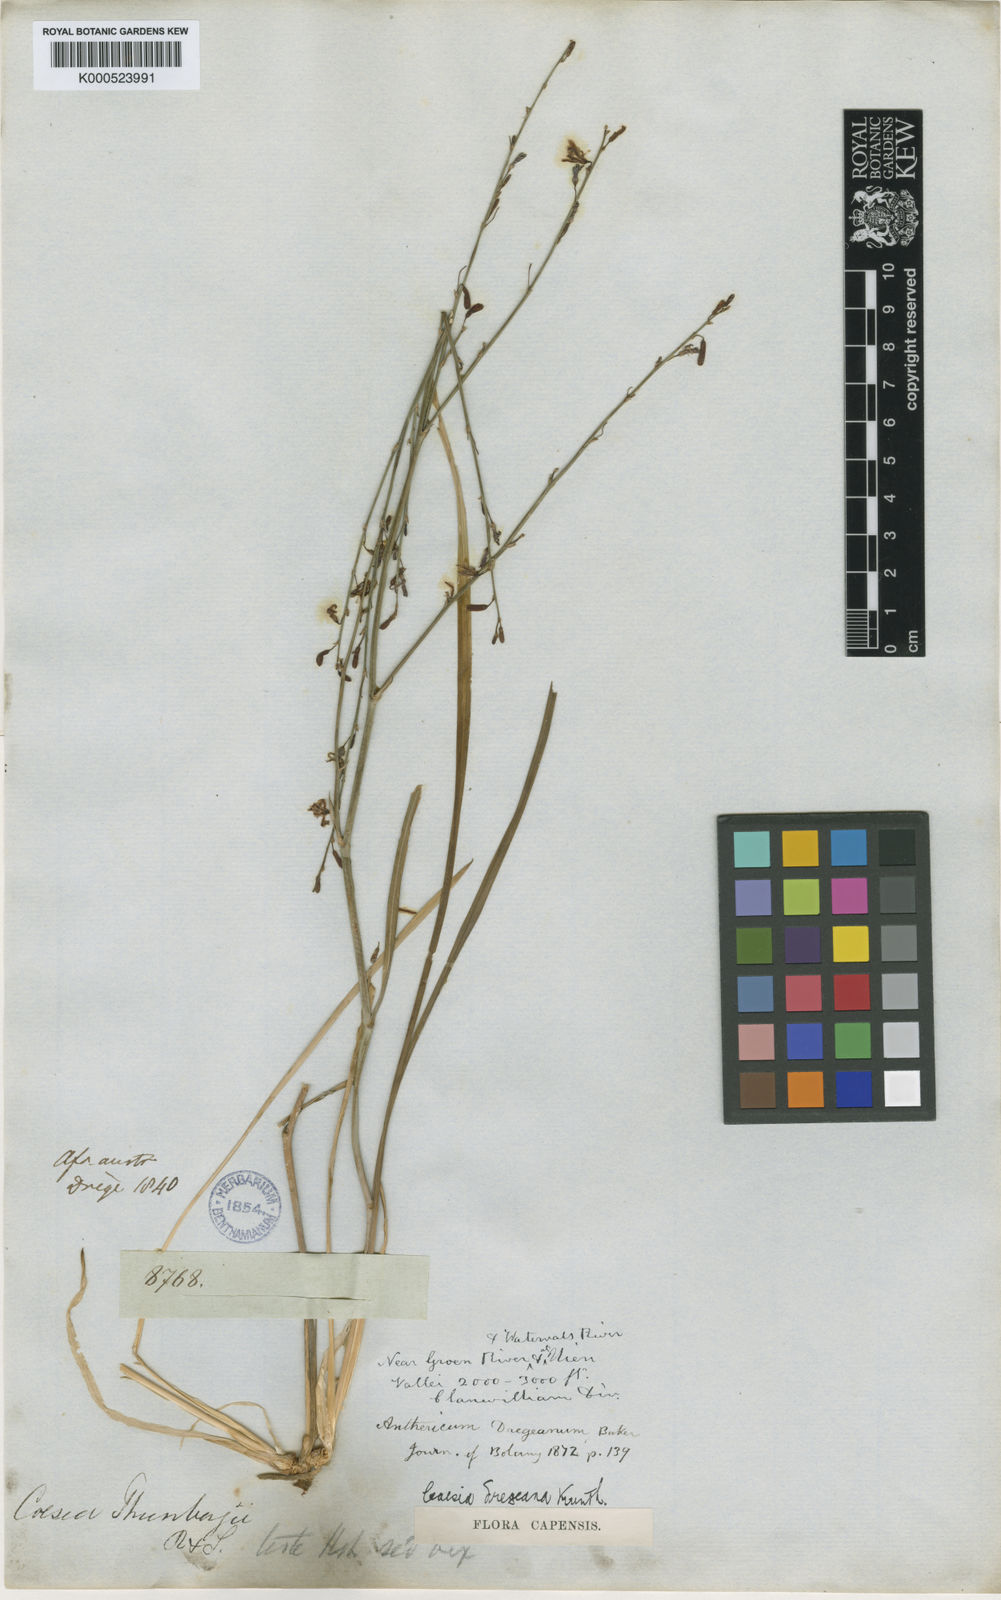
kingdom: Plantae
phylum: Tracheophyta
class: Liliopsida
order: Asparagales
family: Asphodelaceae
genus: Caesia
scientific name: Caesia contorta
